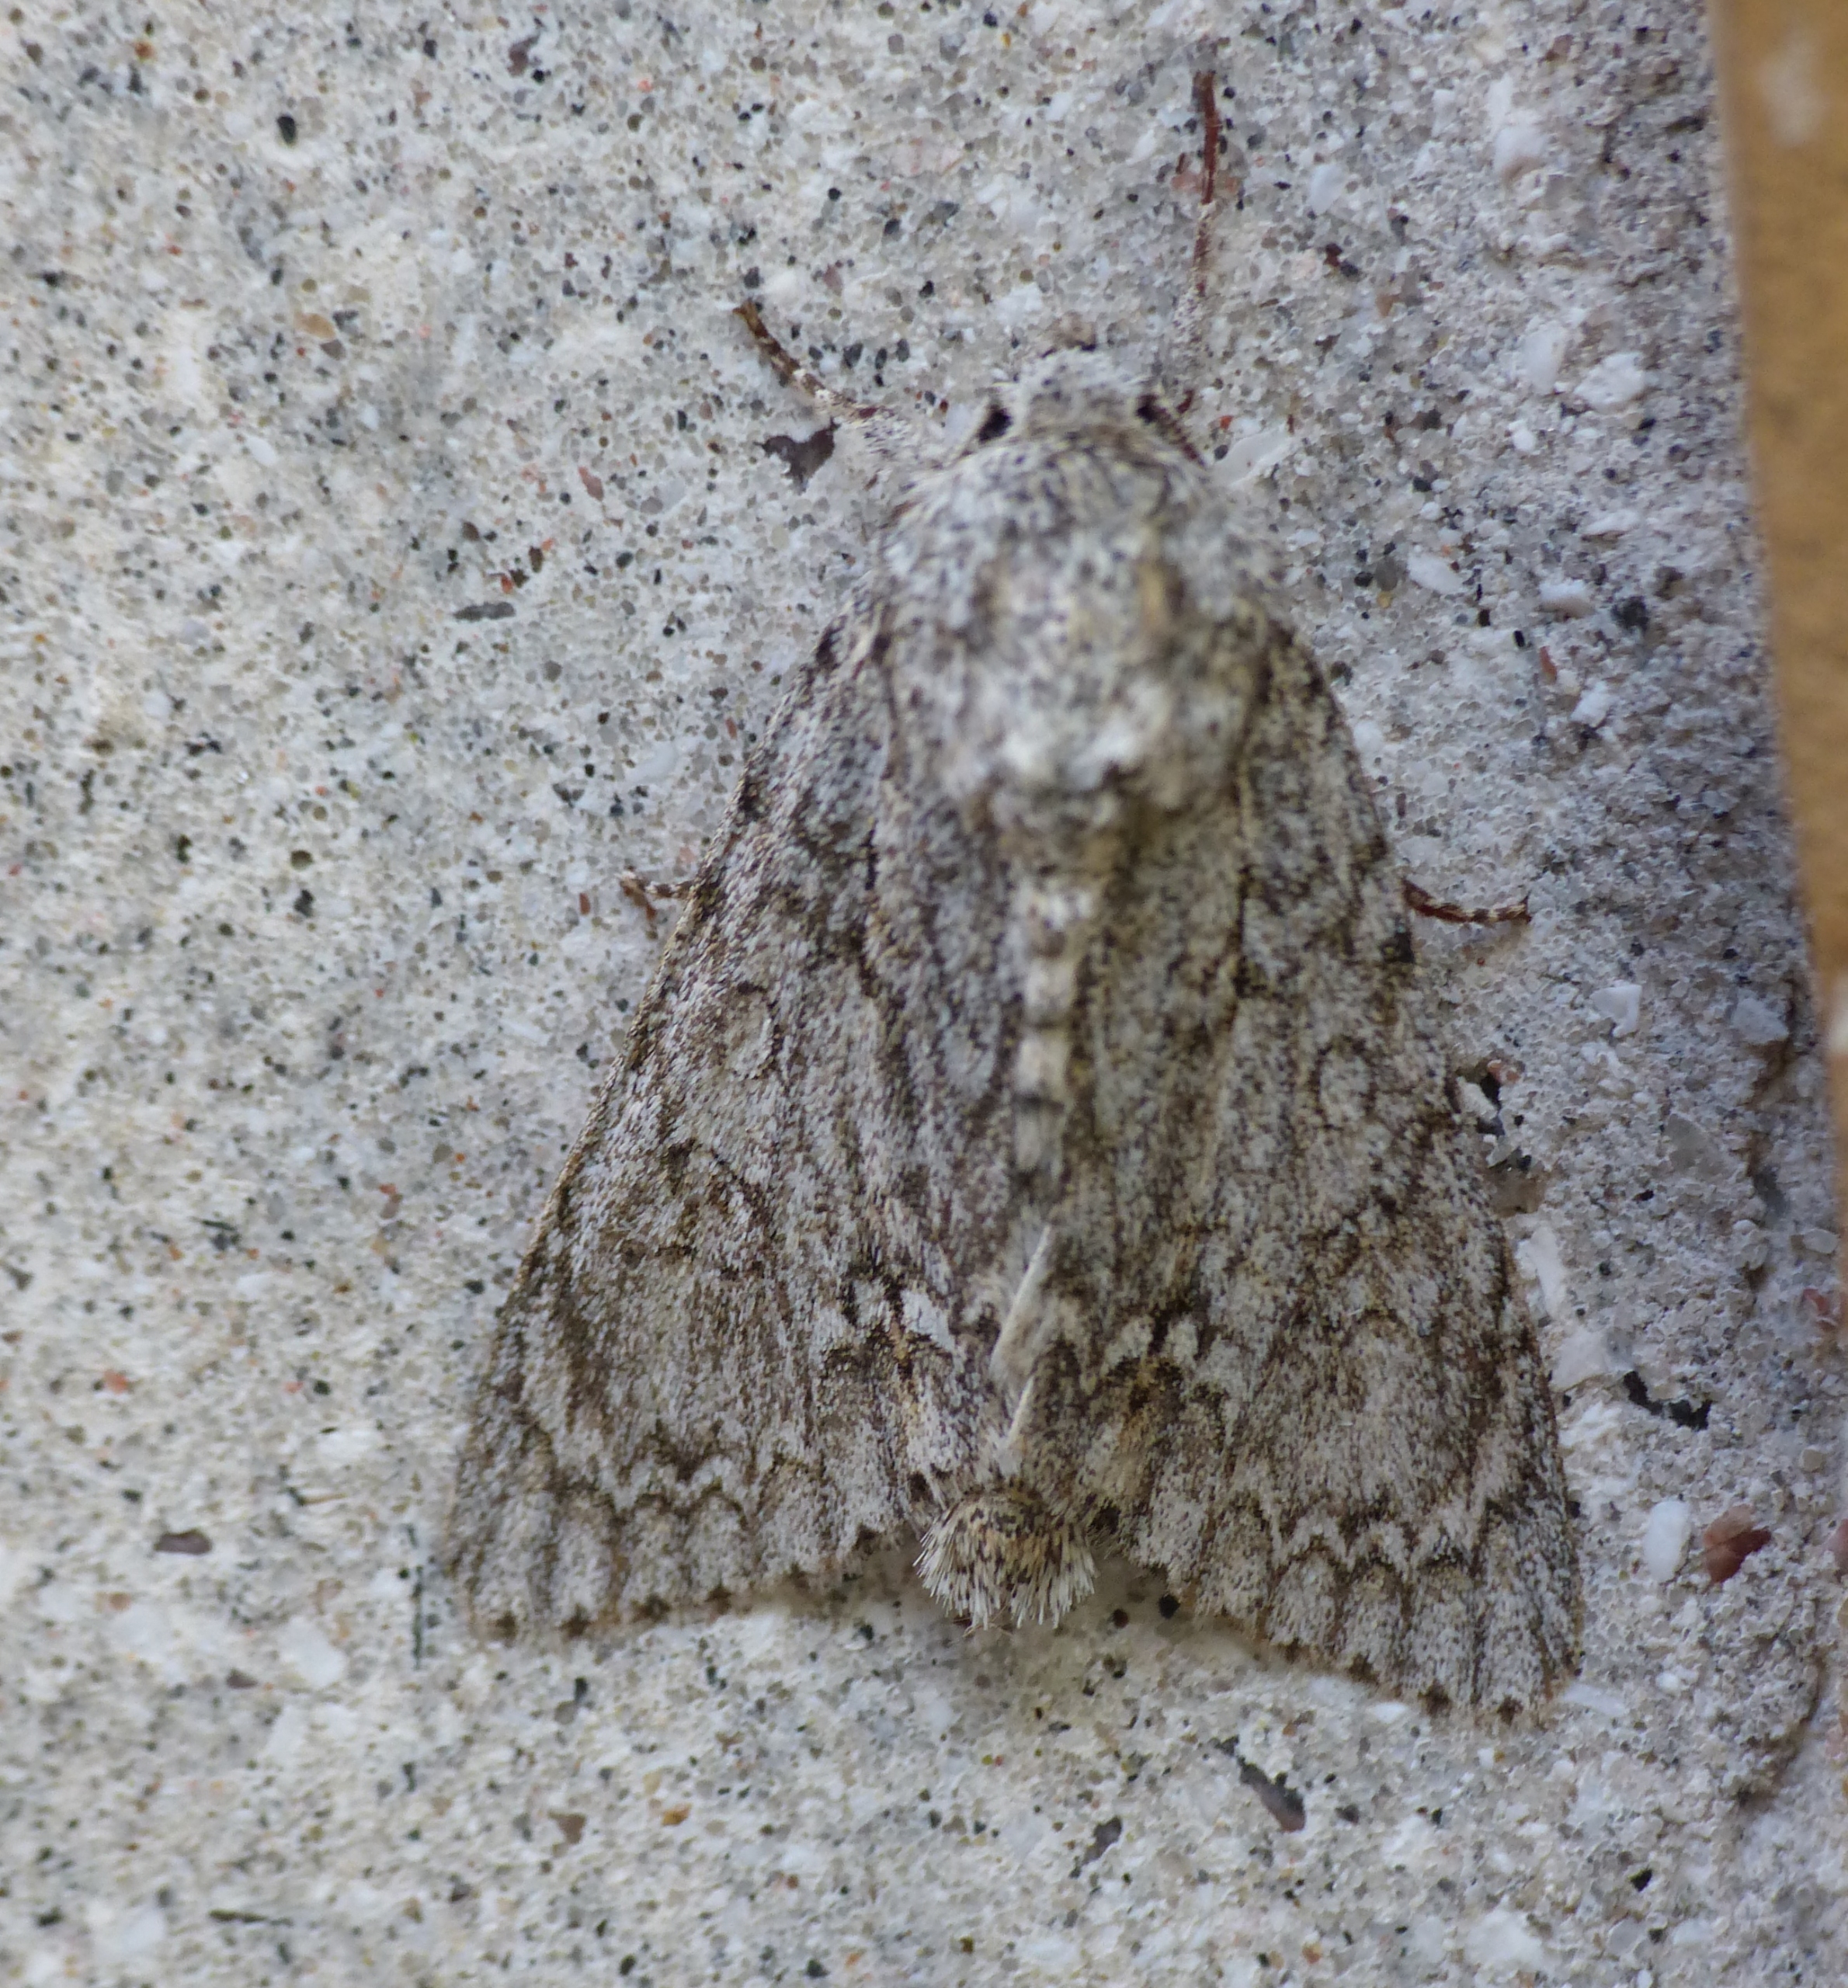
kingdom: Animalia
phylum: Arthropoda
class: Insecta
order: Lepidoptera
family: Noctuidae
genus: Acronicta
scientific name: Acronicta aceris
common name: Ahornugle
